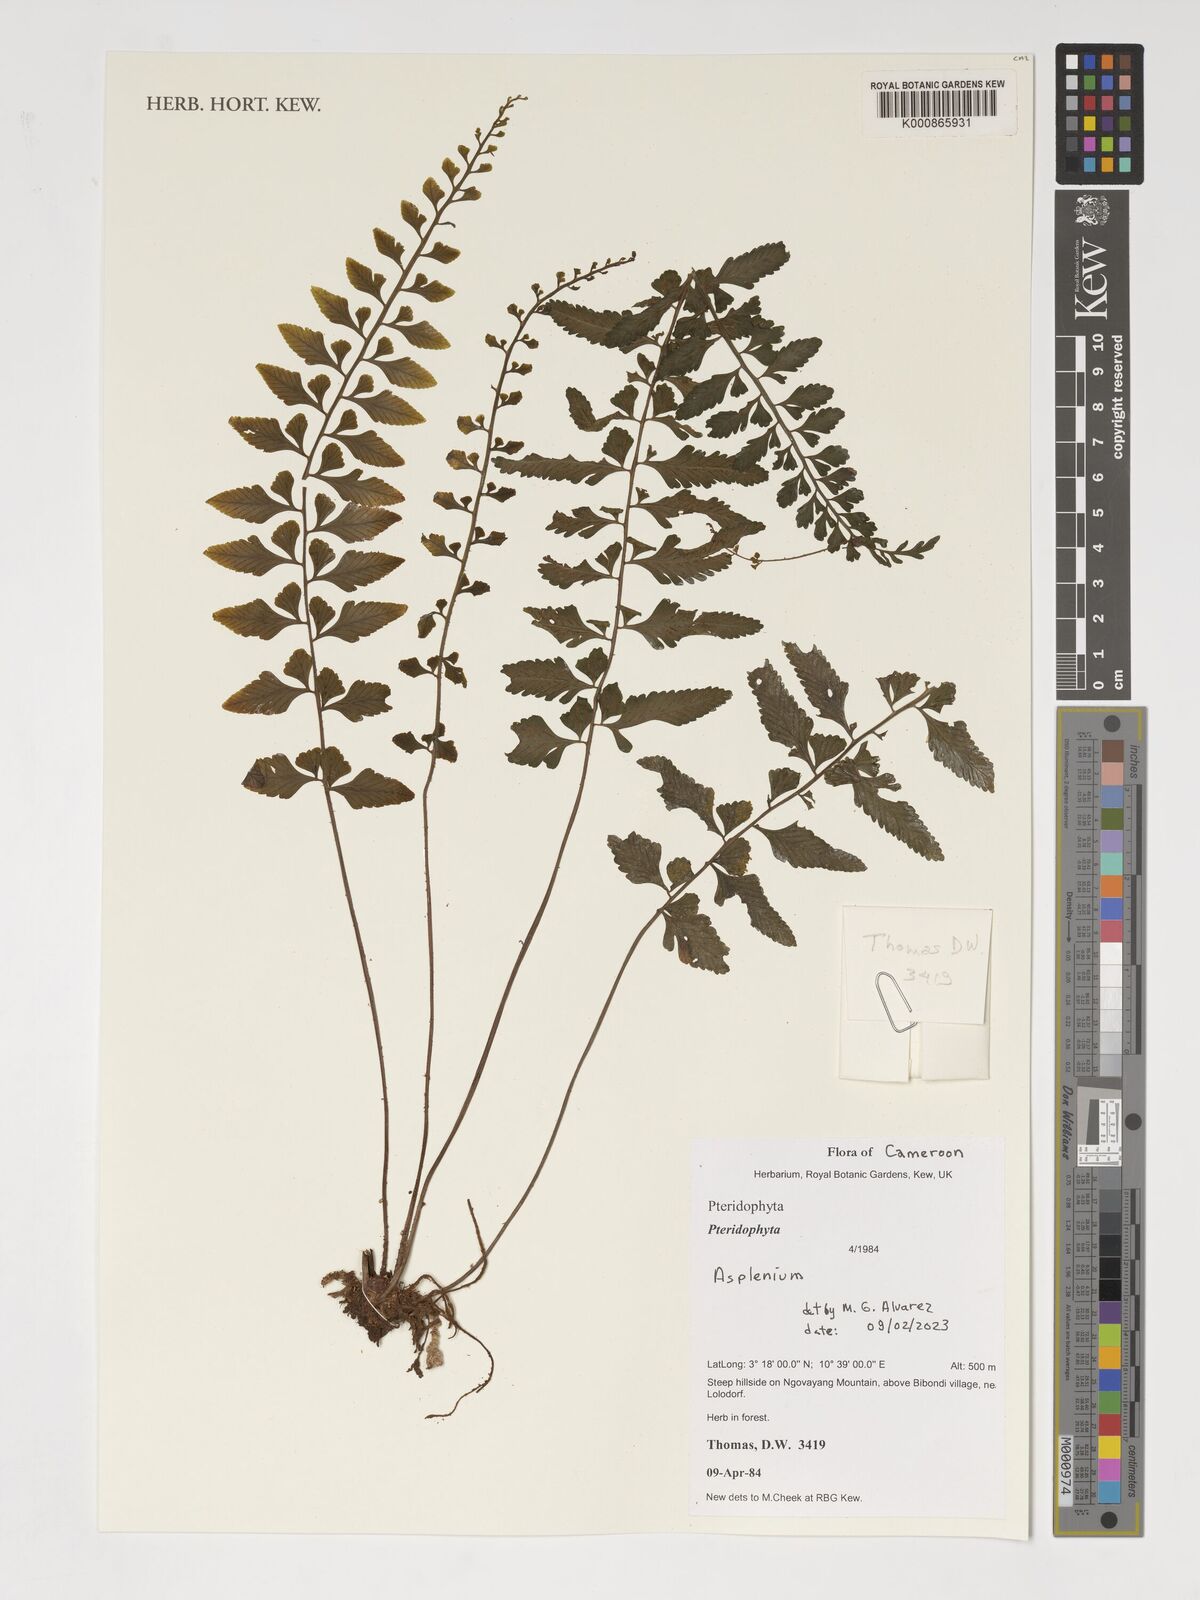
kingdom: Plantae
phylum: Tracheophyta
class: Polypodiopsida
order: Polypodiales
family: Aspleniaceae
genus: Asplenium
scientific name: Asplenium
